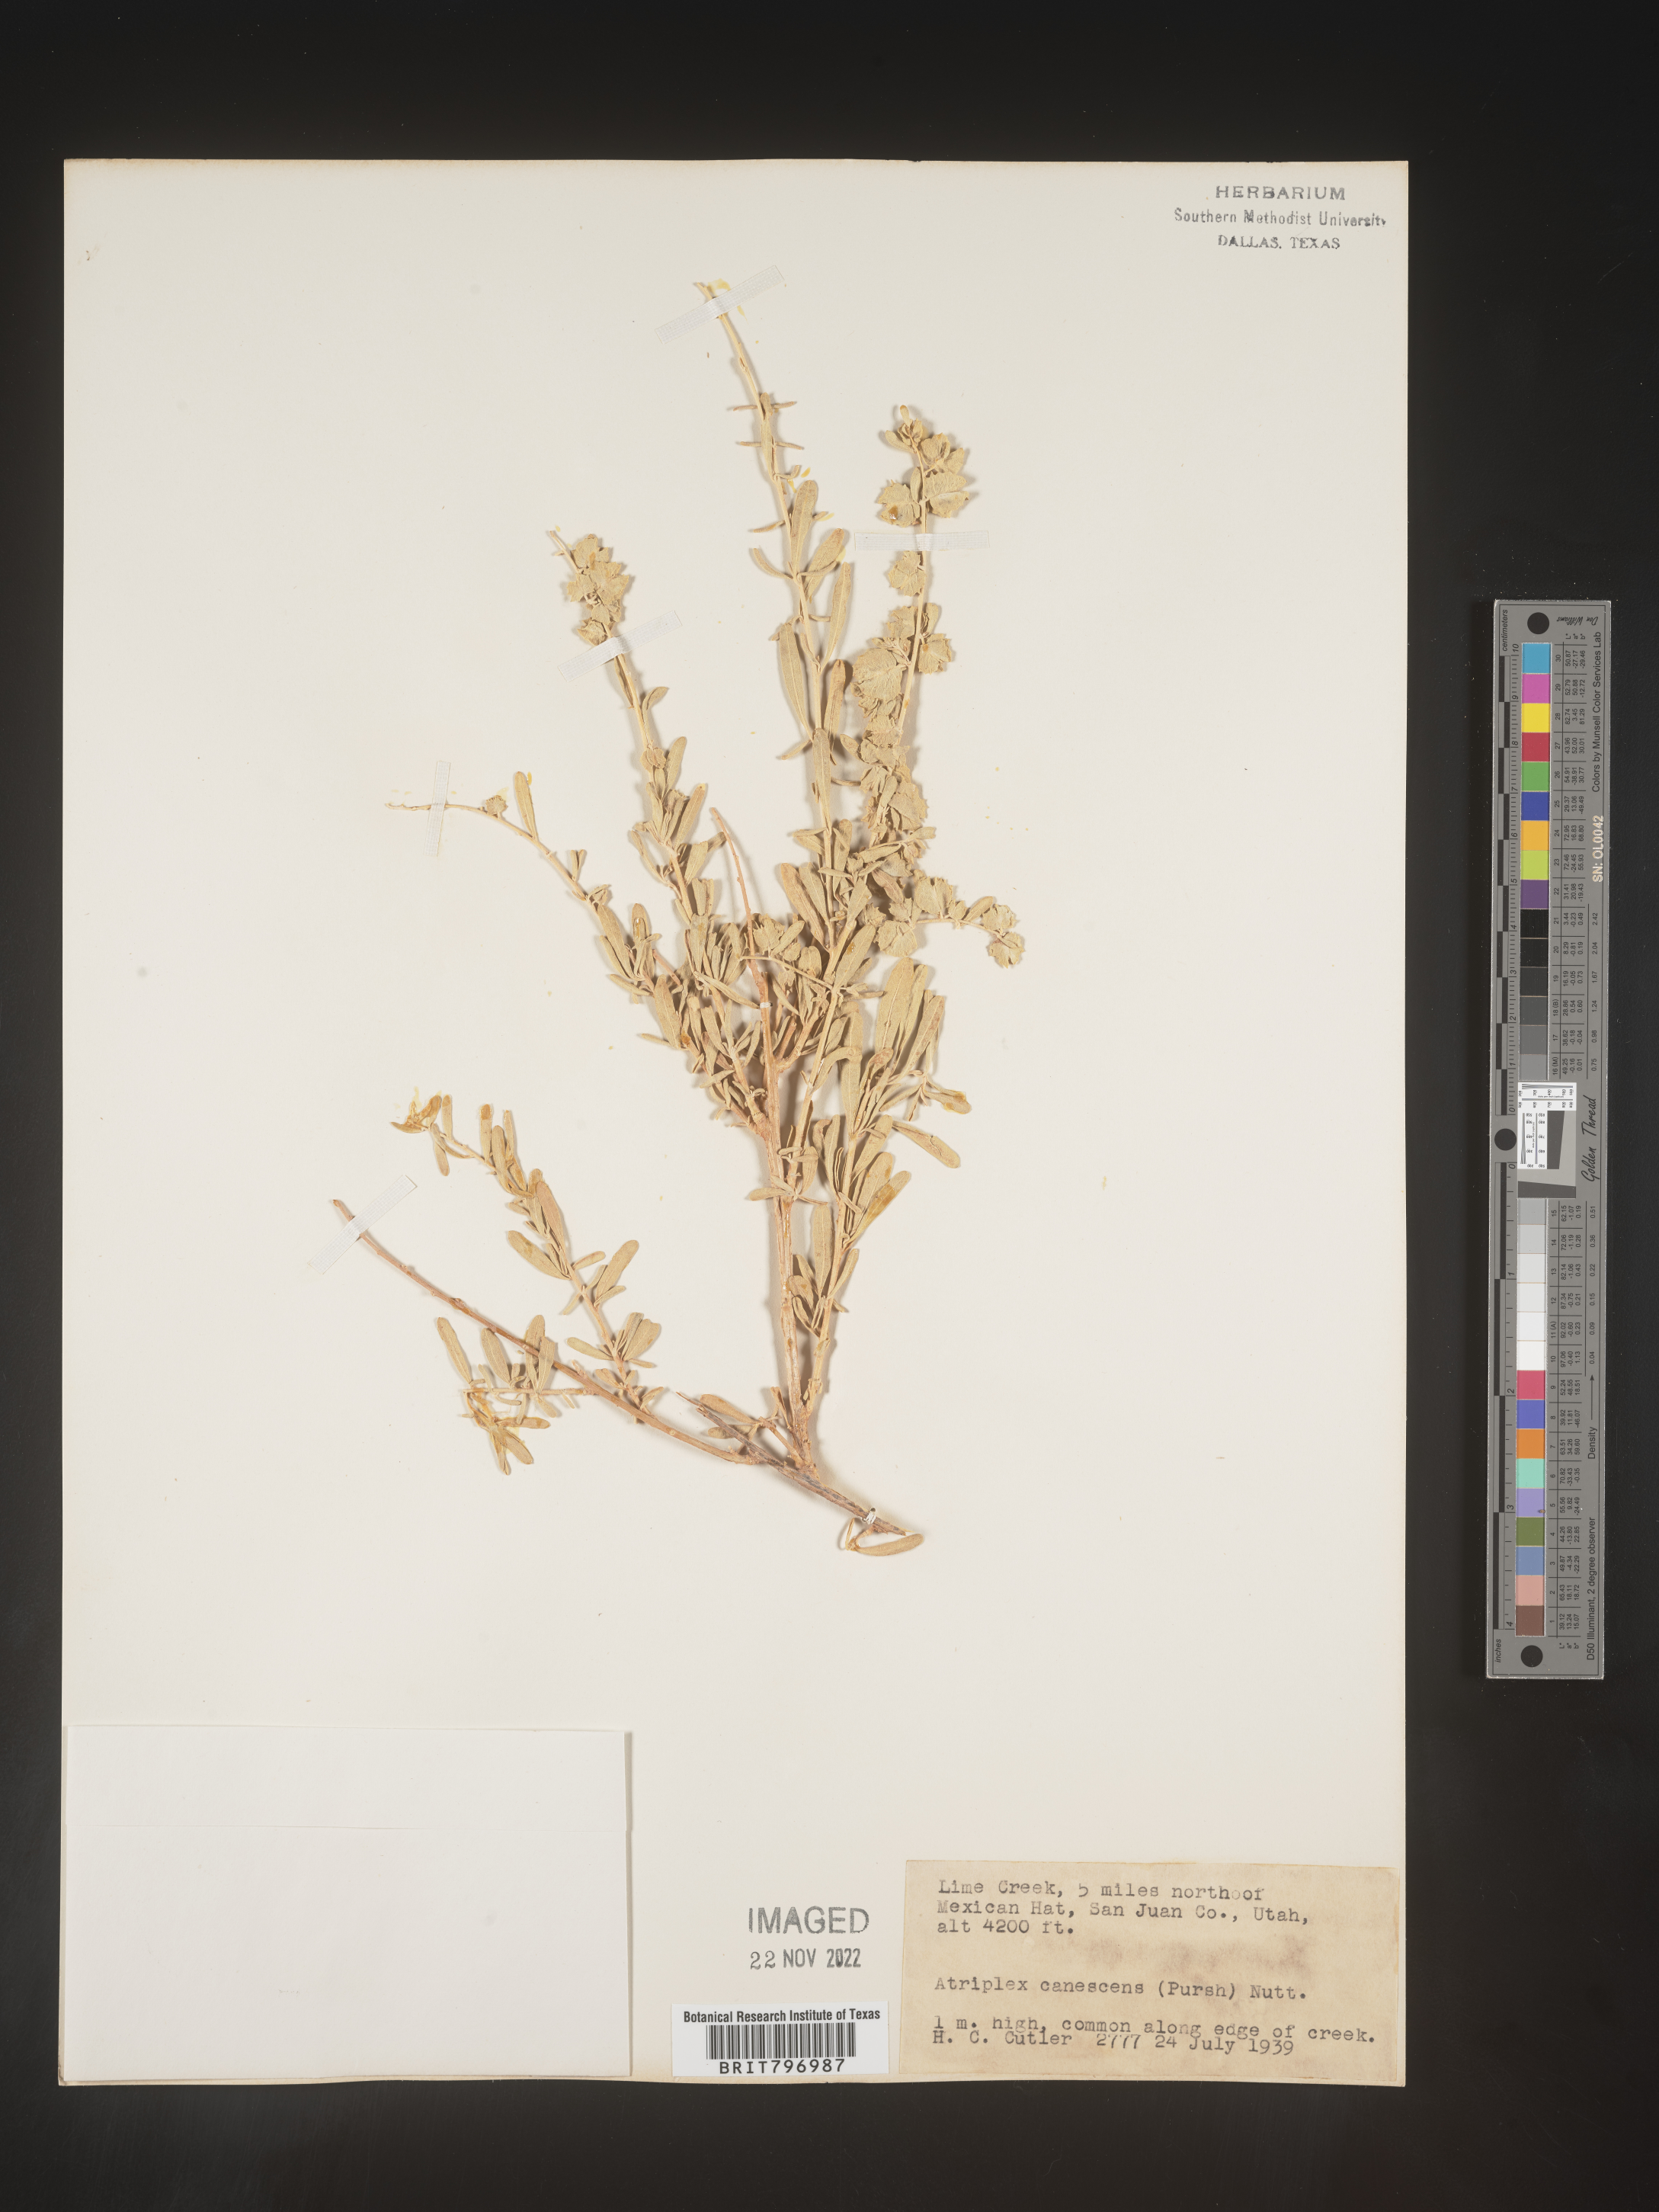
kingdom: Plantae
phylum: Tracheophyta
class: Magnoliopsida
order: Caryophyllales
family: Amaranthaceae
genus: Atriplex
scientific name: Atriplex canescens
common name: Four-wing saltbush
